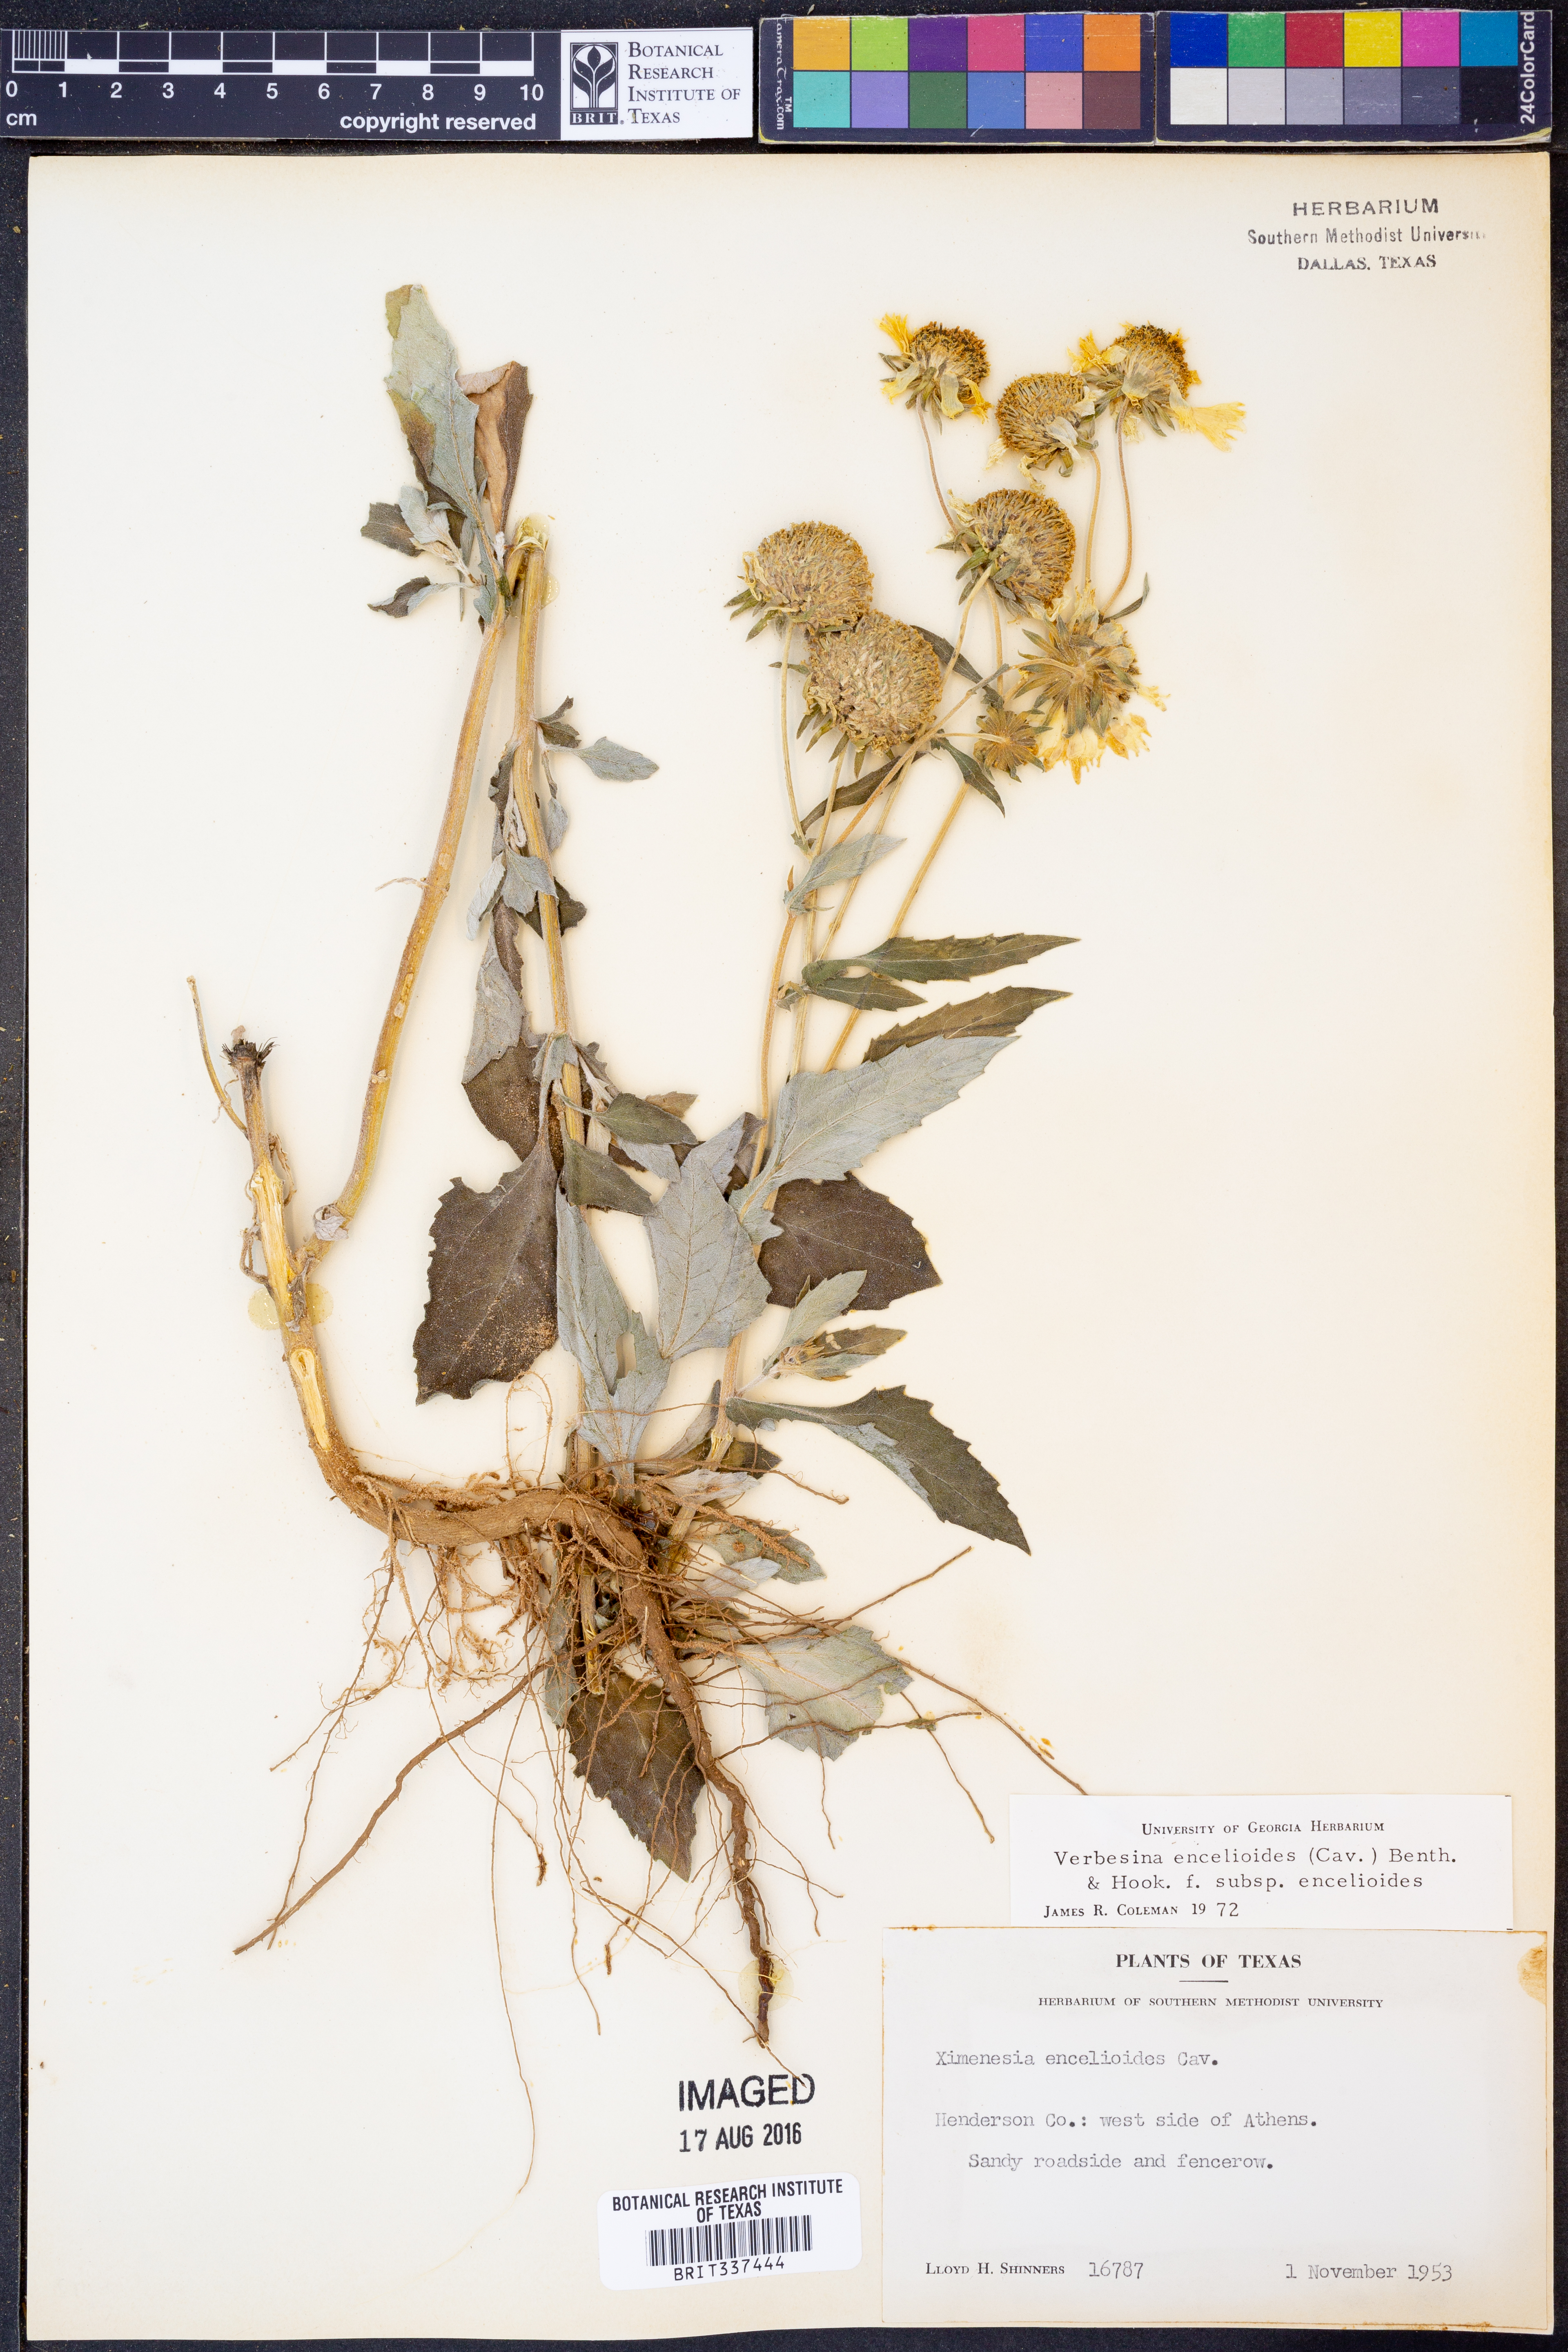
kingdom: Plantae
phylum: Tracheophyta
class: Magnoliopsida
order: Asterales
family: Asteraceae
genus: Verbesina
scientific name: Verbesina encelioides
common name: Golden crownbeard
